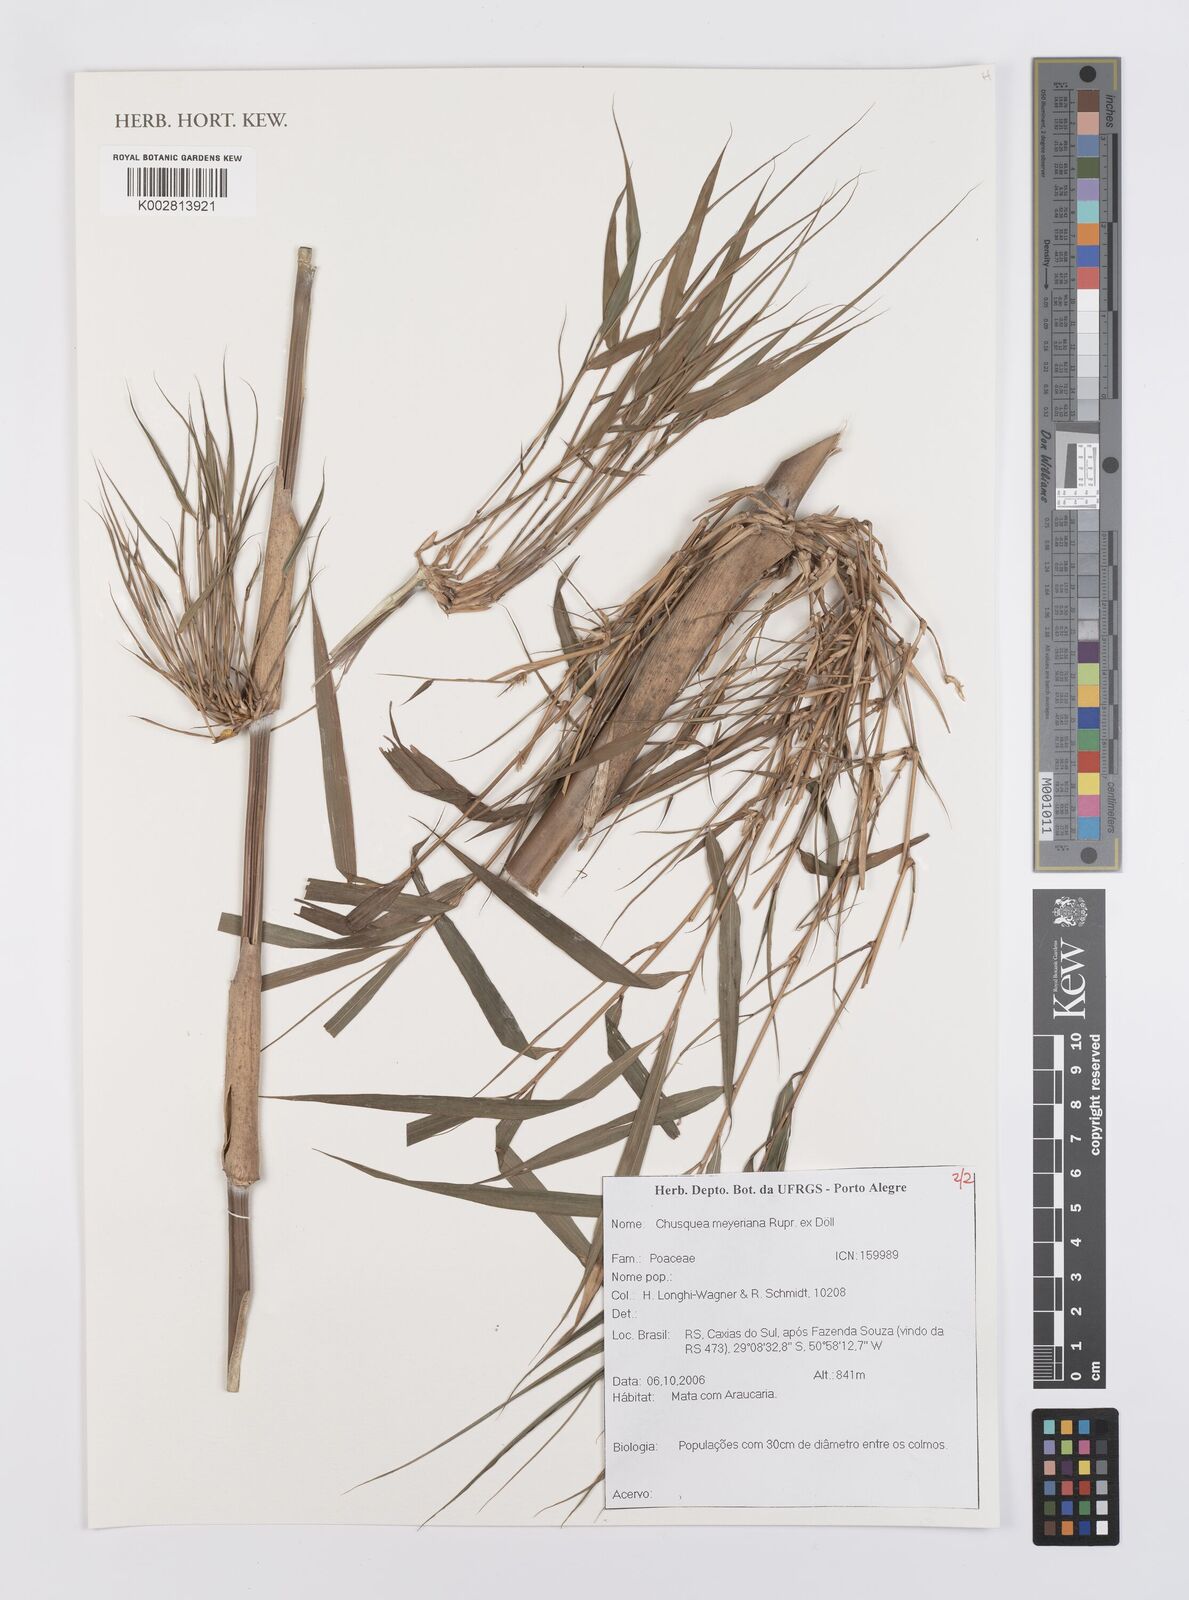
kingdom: Plantae
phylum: Tracheophyta
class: Liliopsida
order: Poales
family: Poaceae
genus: Chusquea
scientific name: Chusquea meyeriana
